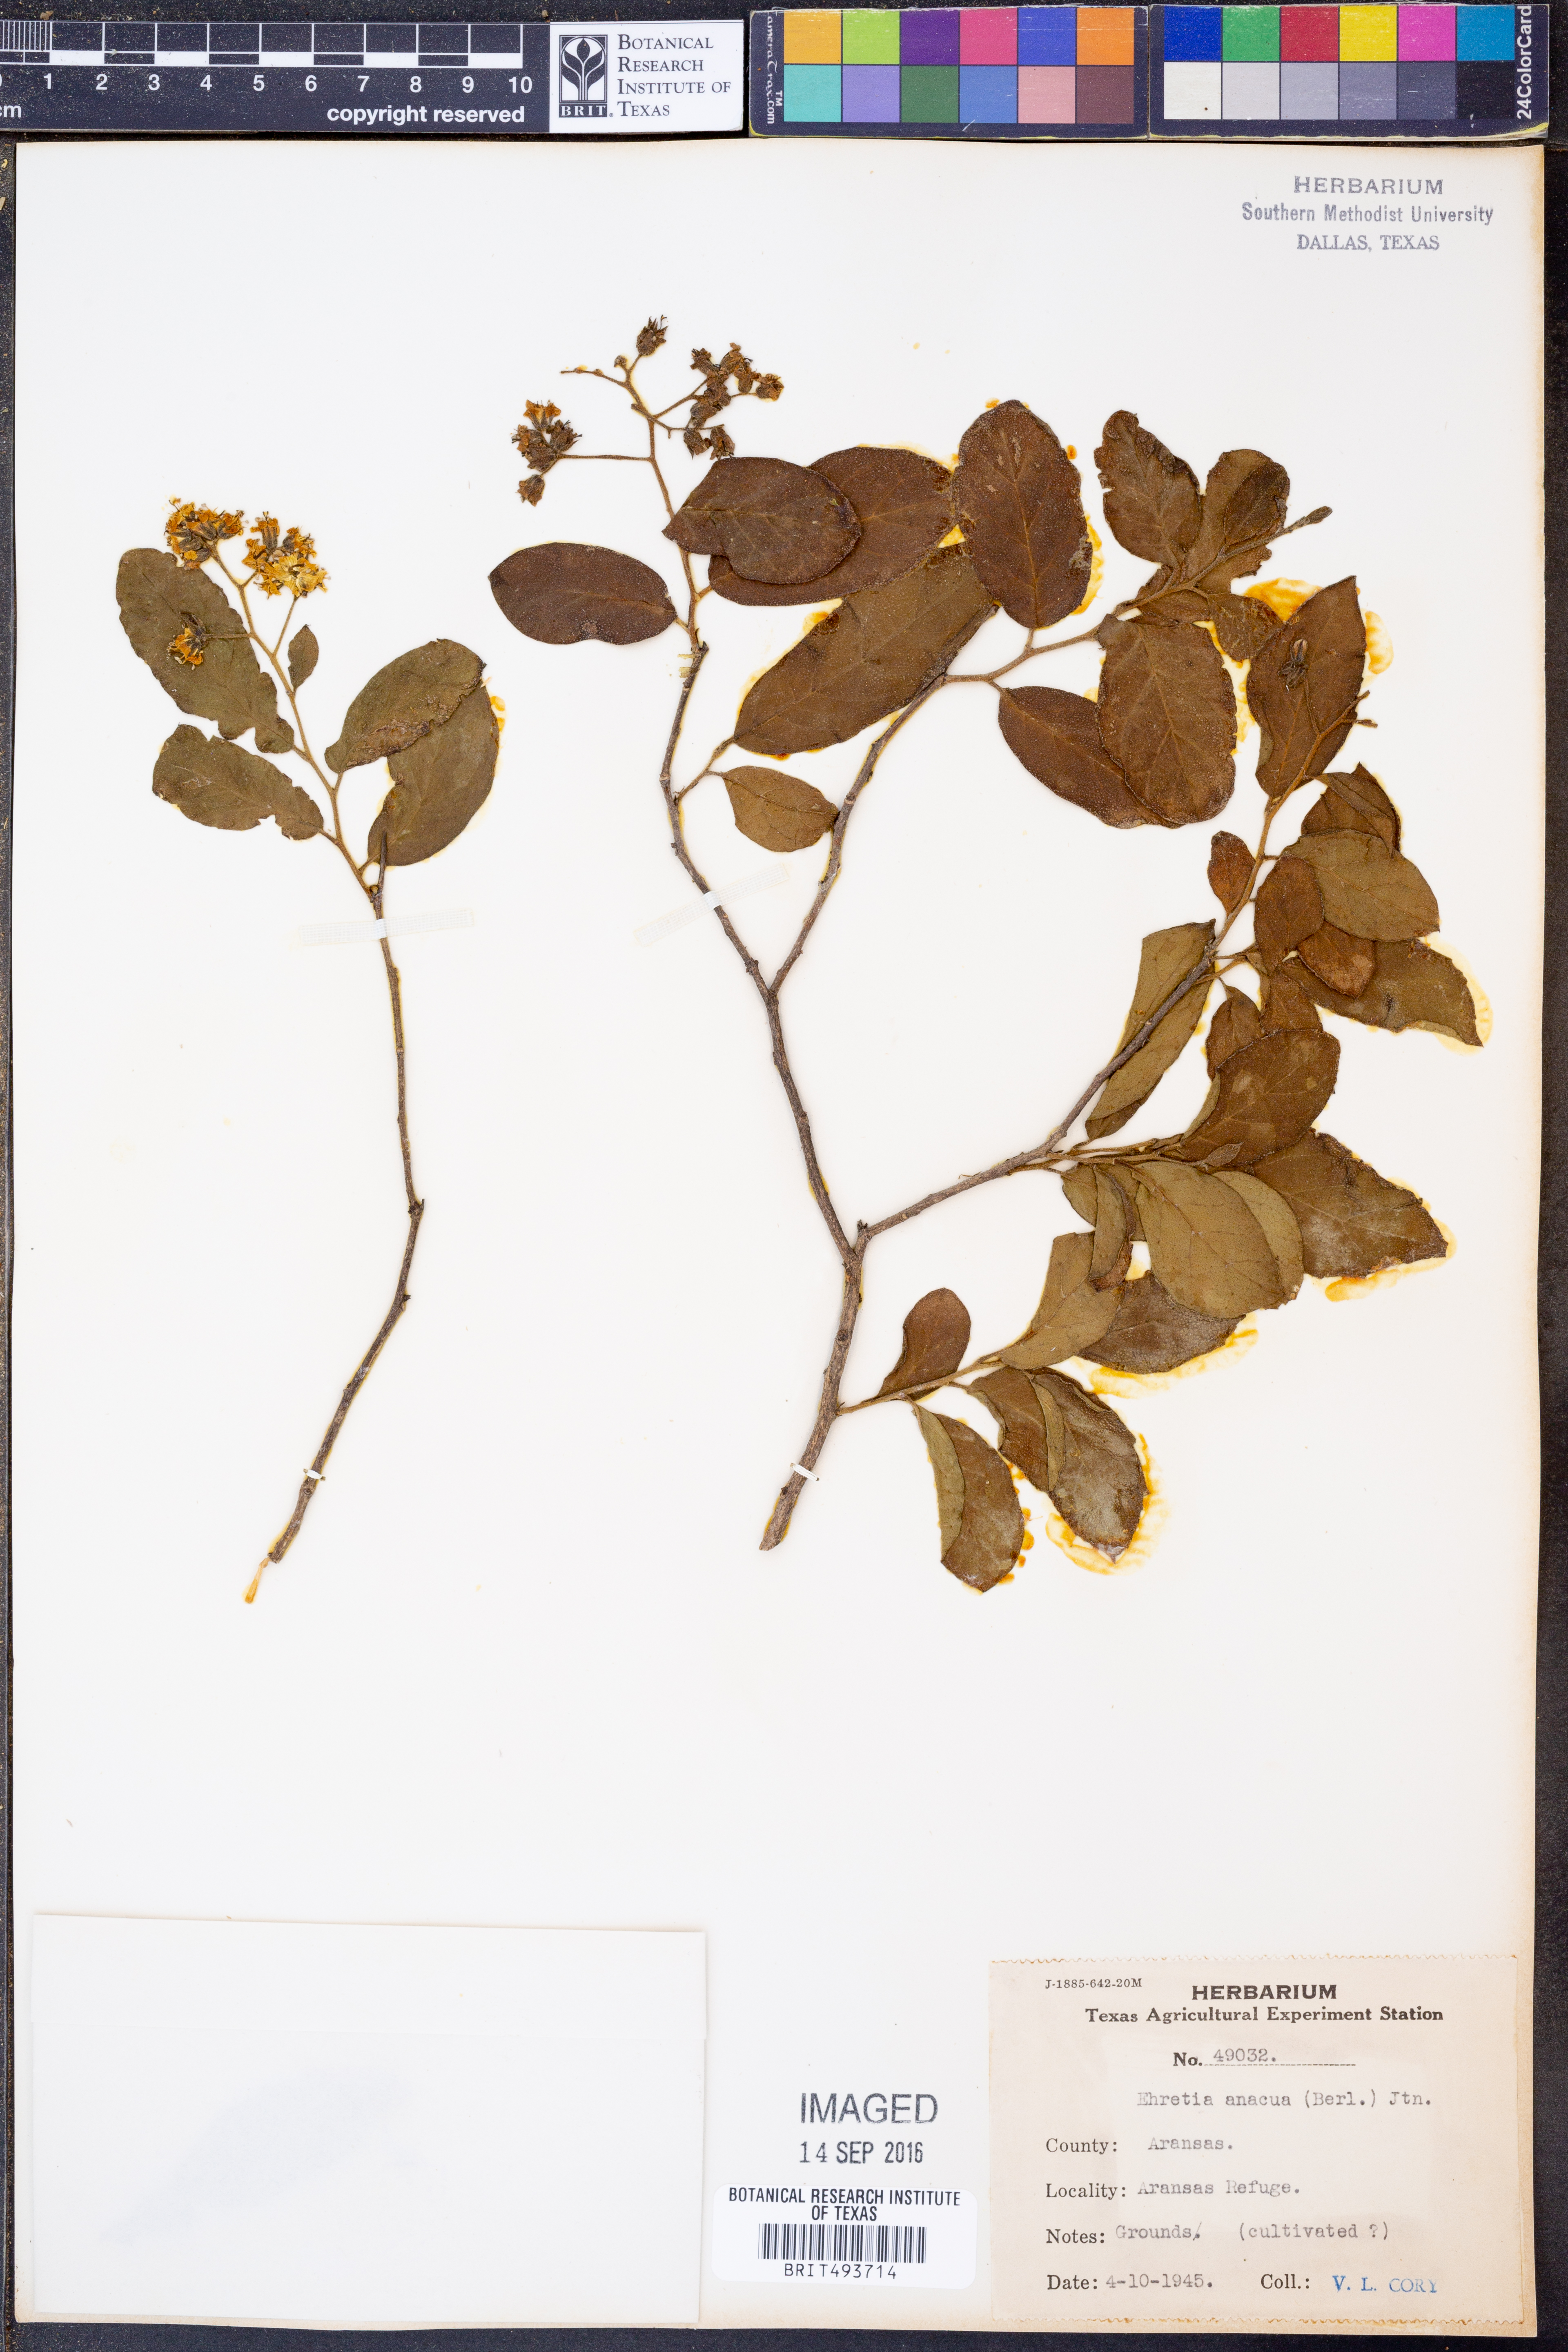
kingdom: Plantae
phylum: Tracheophyta
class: Magnoliopsida
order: Boraginales
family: Ehretiaceae
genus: Ehretia
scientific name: Ehretia anacua
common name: Sugarberry
